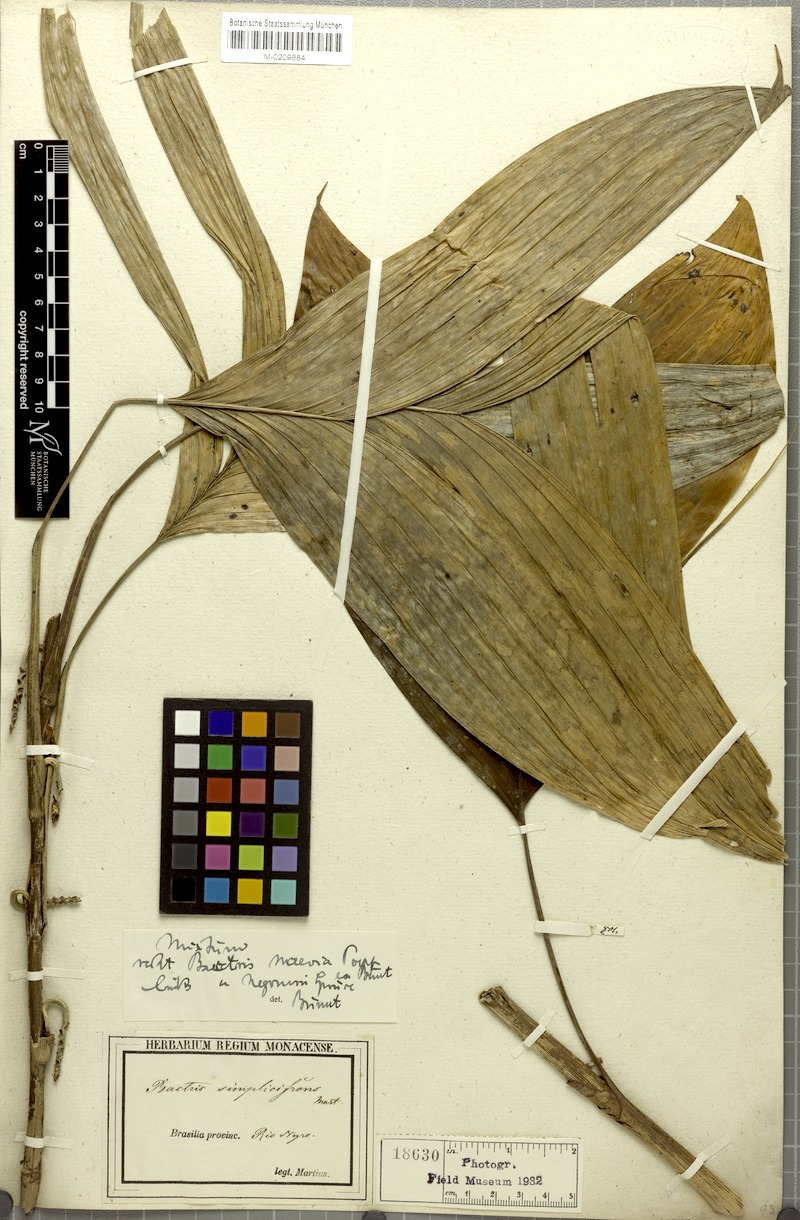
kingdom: Plantae
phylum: Tracheophyta
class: Liliopsida
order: Arecales
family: Arecaceae
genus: Bactris
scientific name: Bactris simplicifrons
